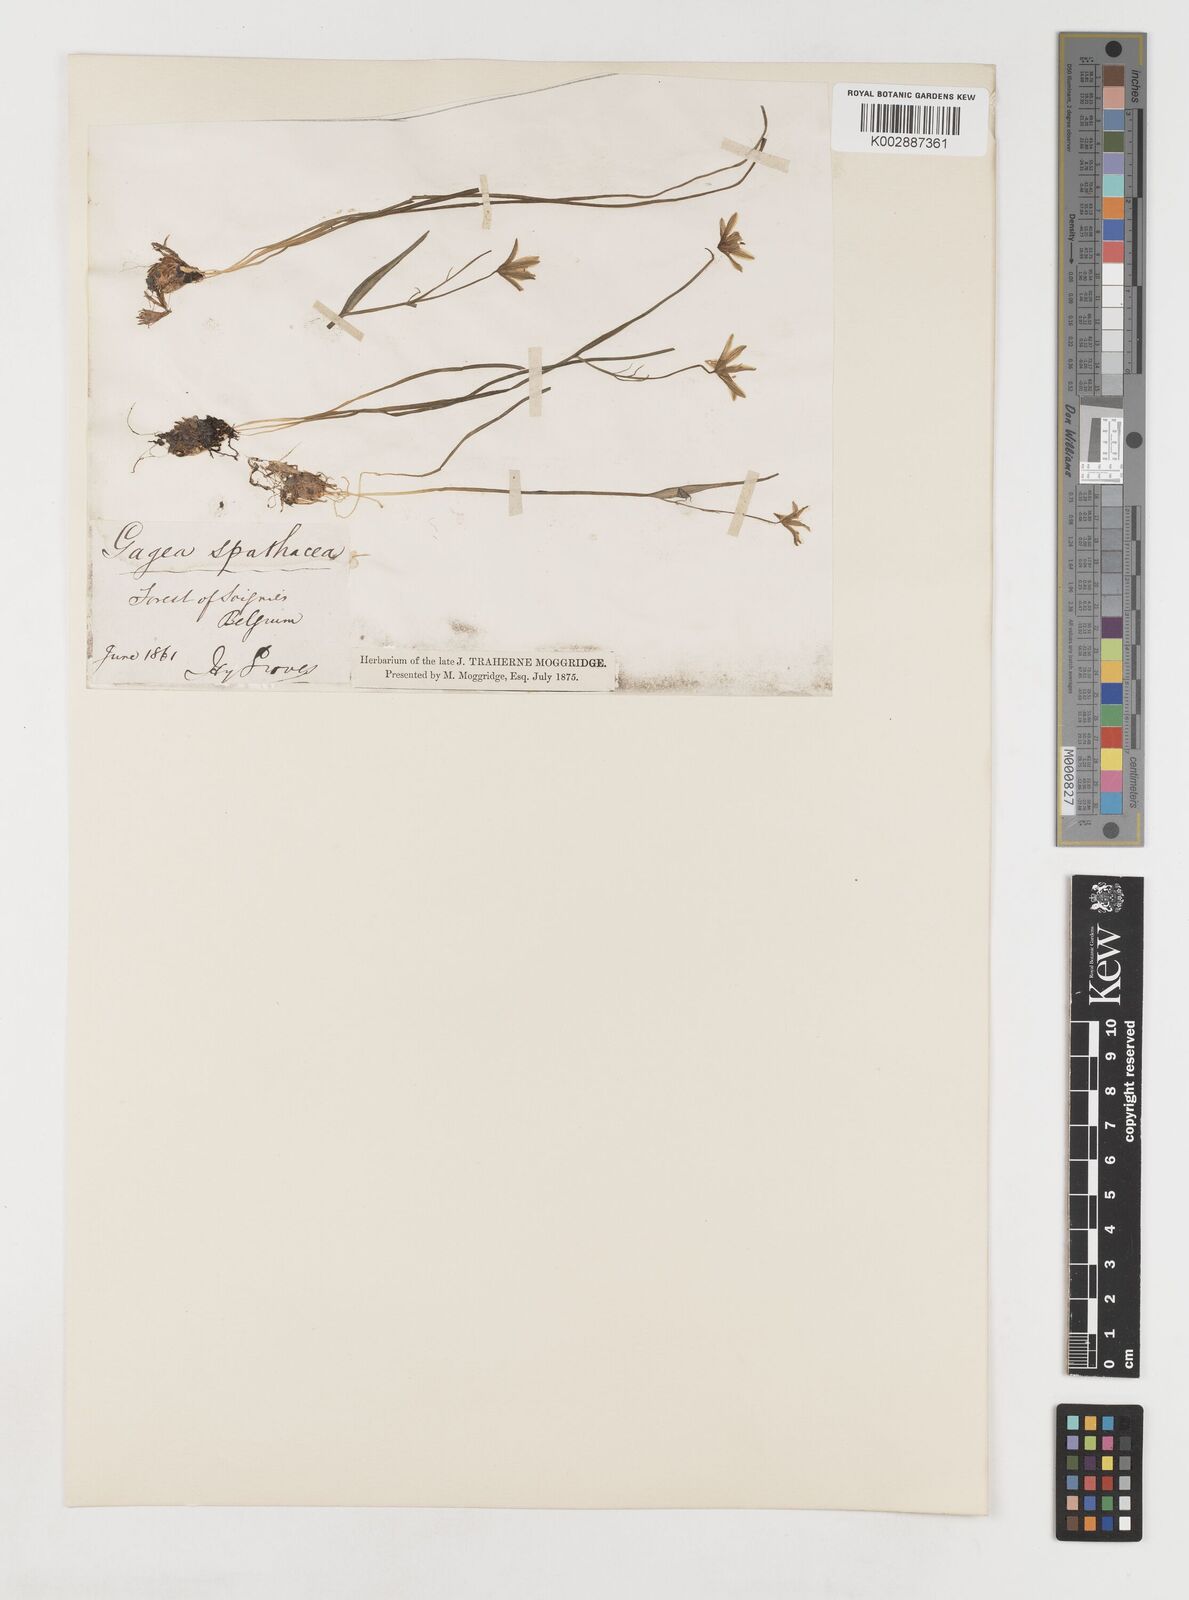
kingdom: Plantae
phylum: Tracheophyta
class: Liliopsida
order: Liliales
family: Liliaceae
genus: Gagea
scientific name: Gagea spathacea
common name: Belgian gagea
